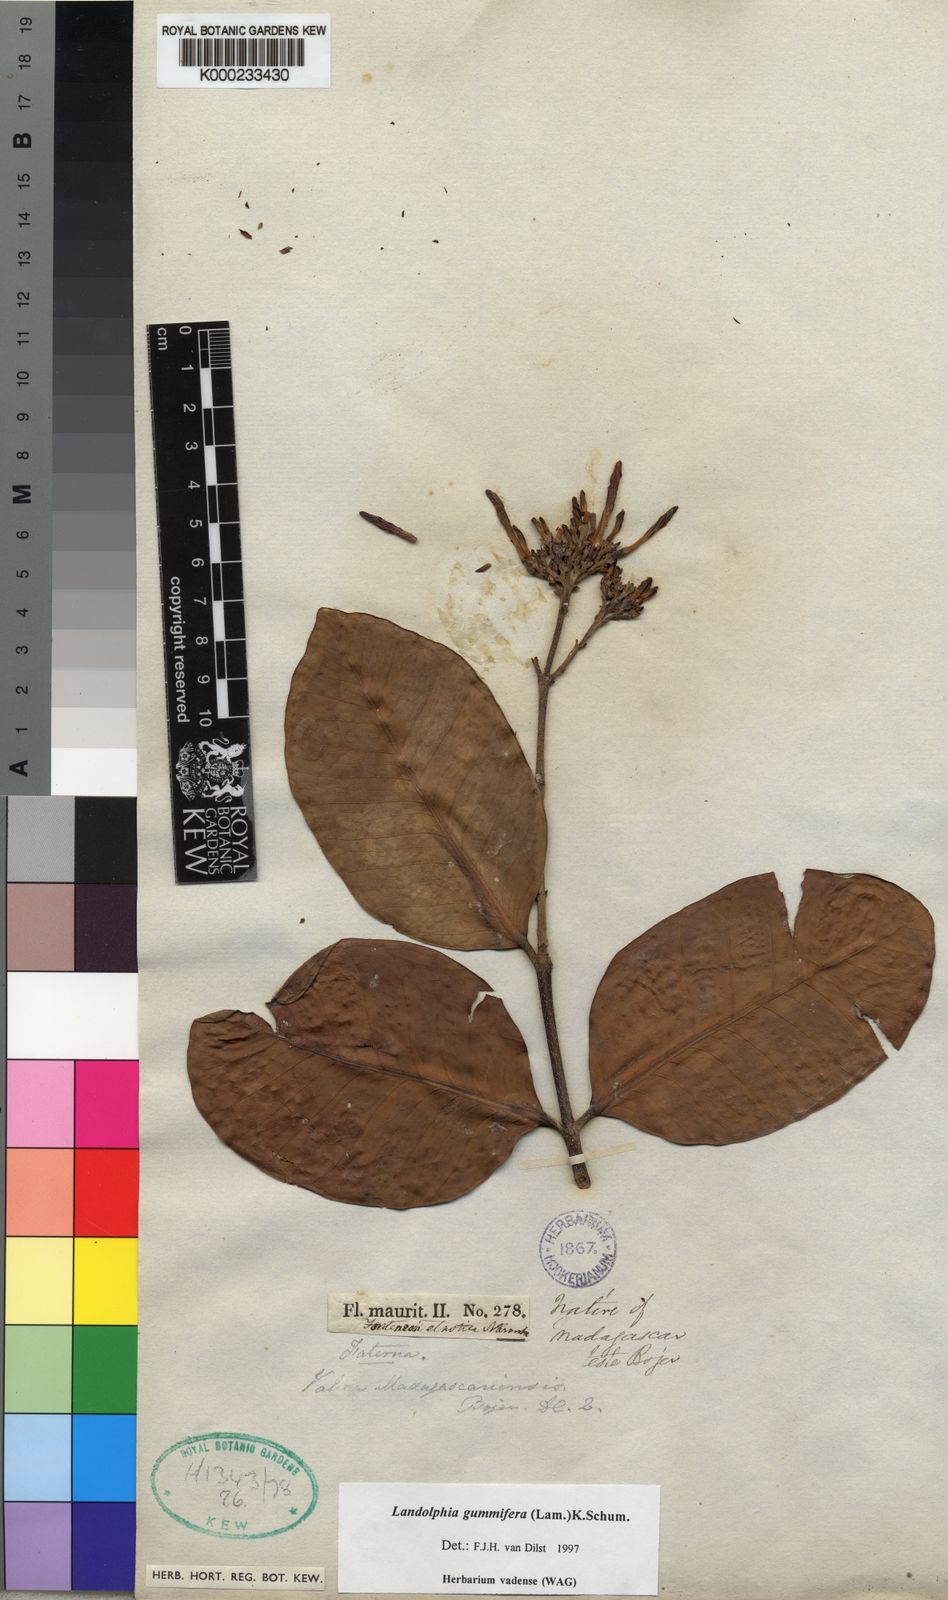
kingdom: Plantae
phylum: Tracheophyta
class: Magnoliopsida
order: Gentianales
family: Apocynaceae
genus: Landolphia
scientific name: Landolphia gummifera
